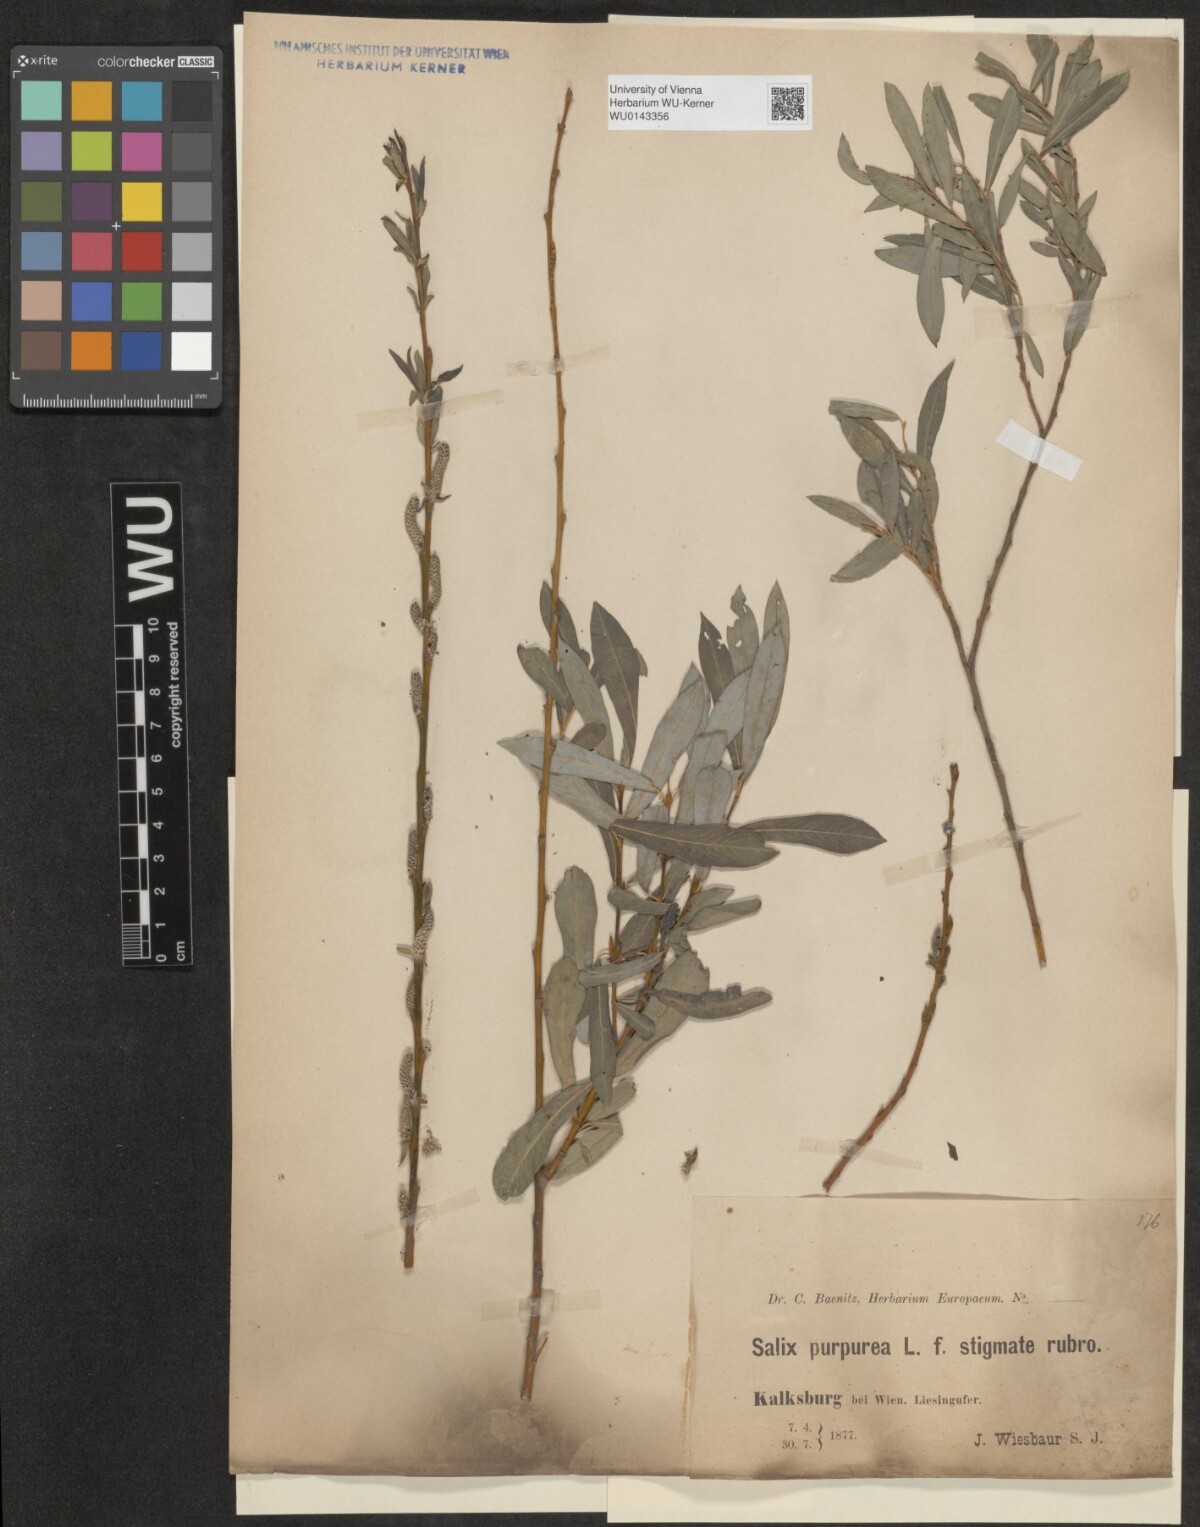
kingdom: Plantae
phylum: Tracheophyta
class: Magnoliopsida
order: Malpighiales
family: Salicaceae
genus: Salix
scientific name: Salix purpurea
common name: Purple willow
